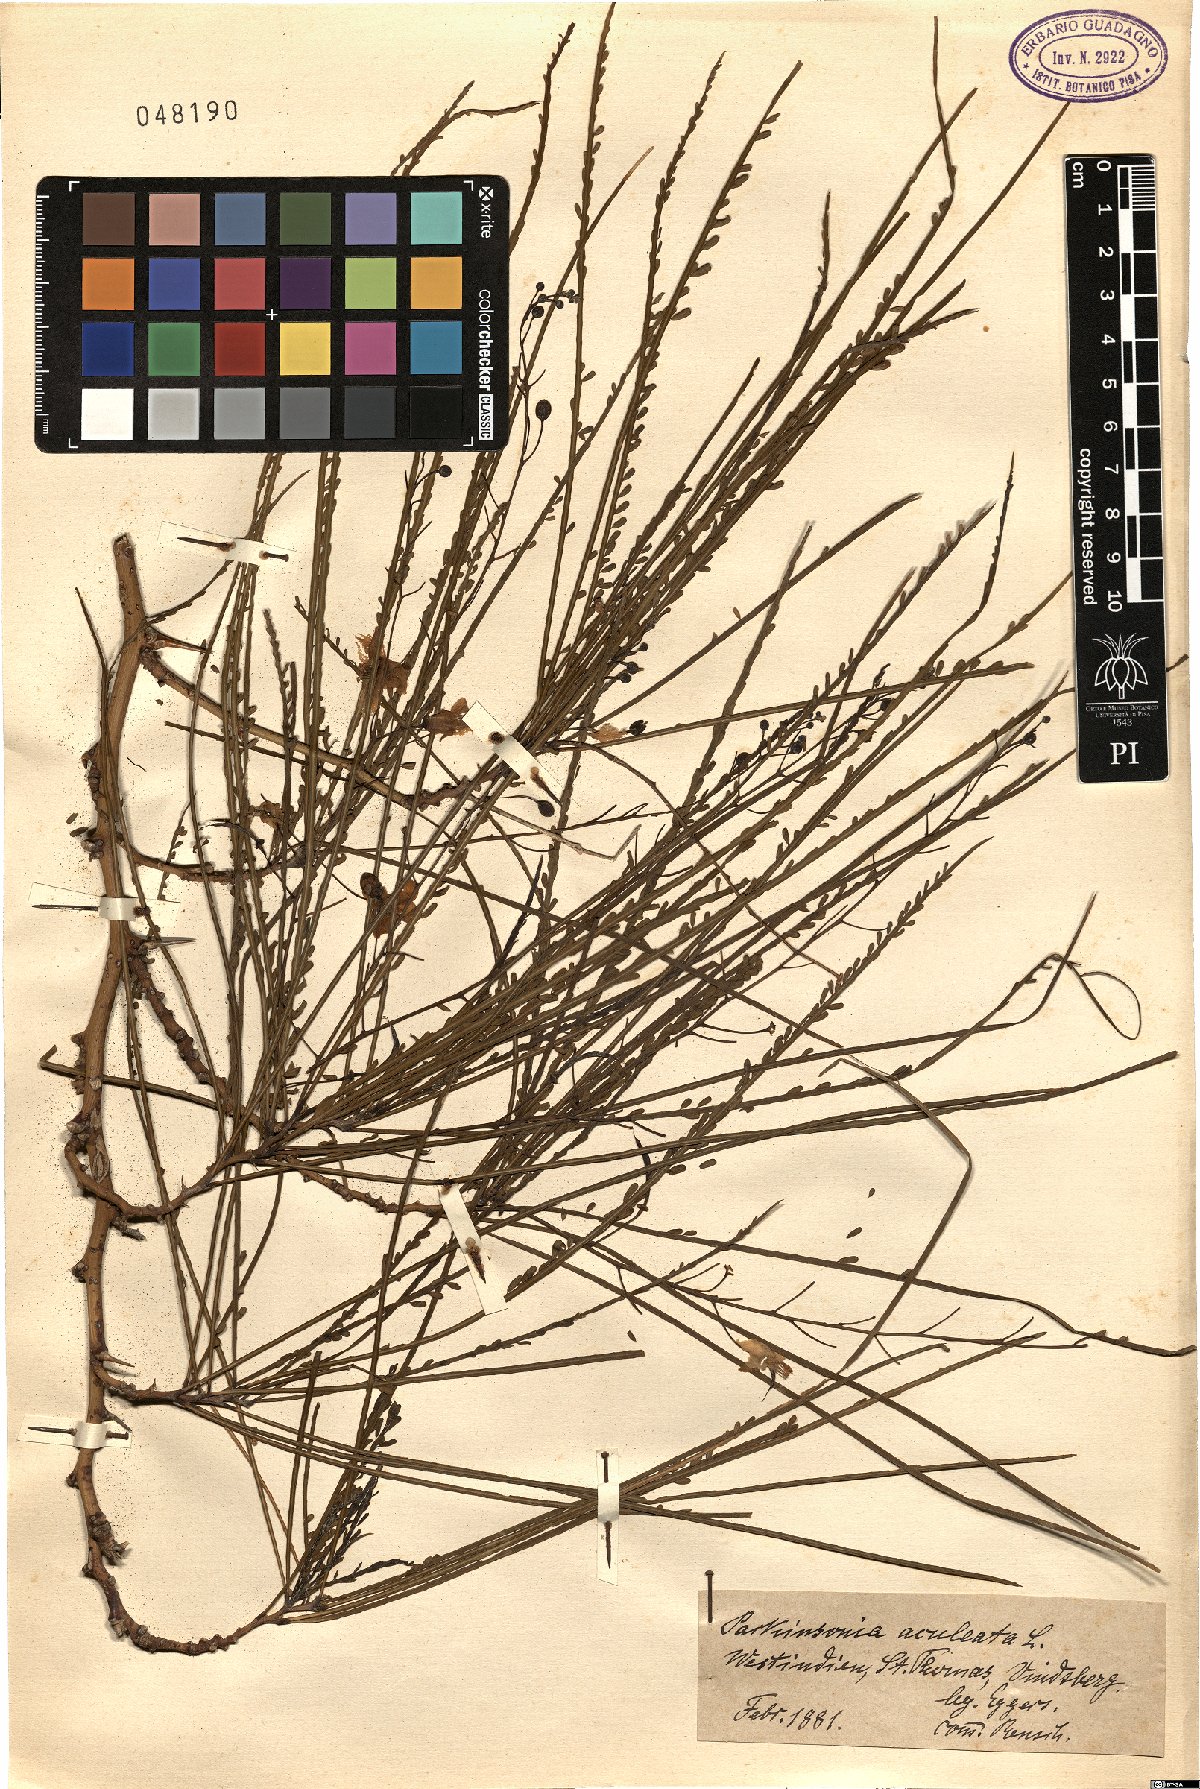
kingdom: Plantae
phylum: Tracheophyta
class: Magnoliopsida
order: Fabales
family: Fabaceae
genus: Parkinsonia
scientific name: Parkinsonia aculeata
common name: Jerusalem thorn
